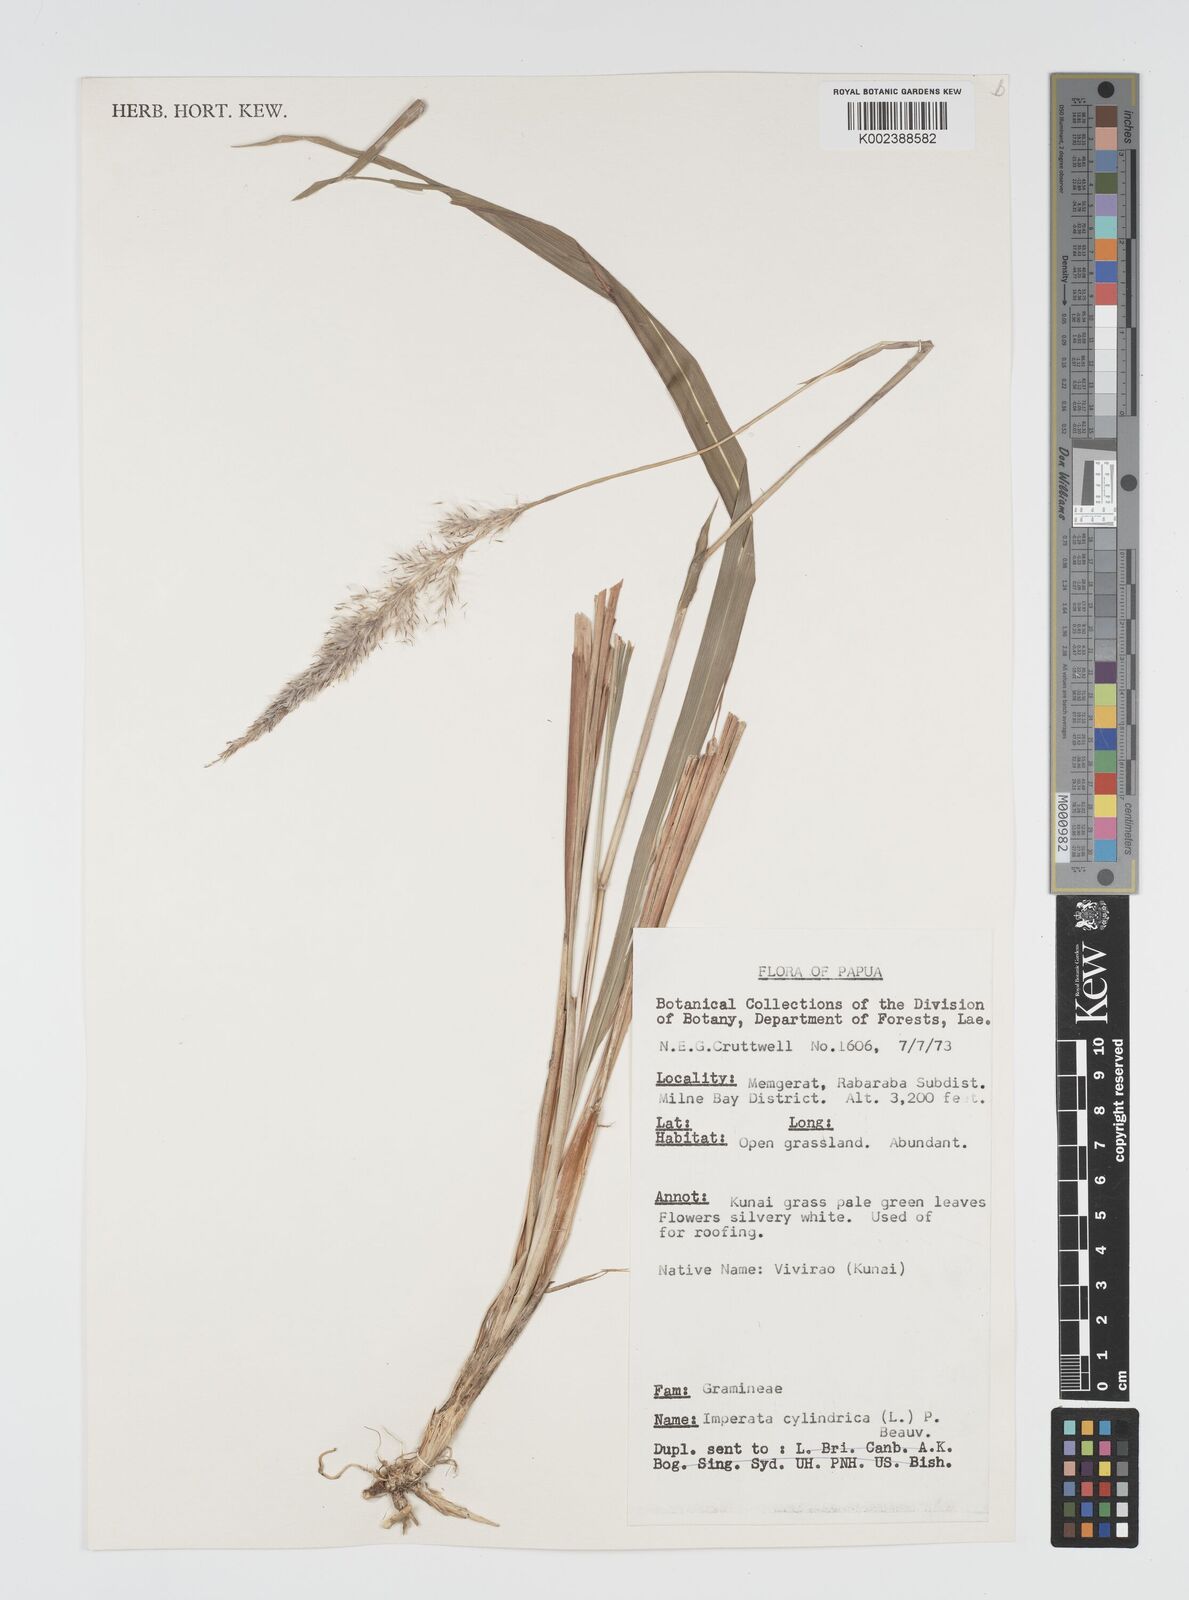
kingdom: Plantae
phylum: Tracheophyta
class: Liliopsida
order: Poales
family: Poaceae
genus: Imperata
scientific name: Imperata cylindrica
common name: Cogongrass
